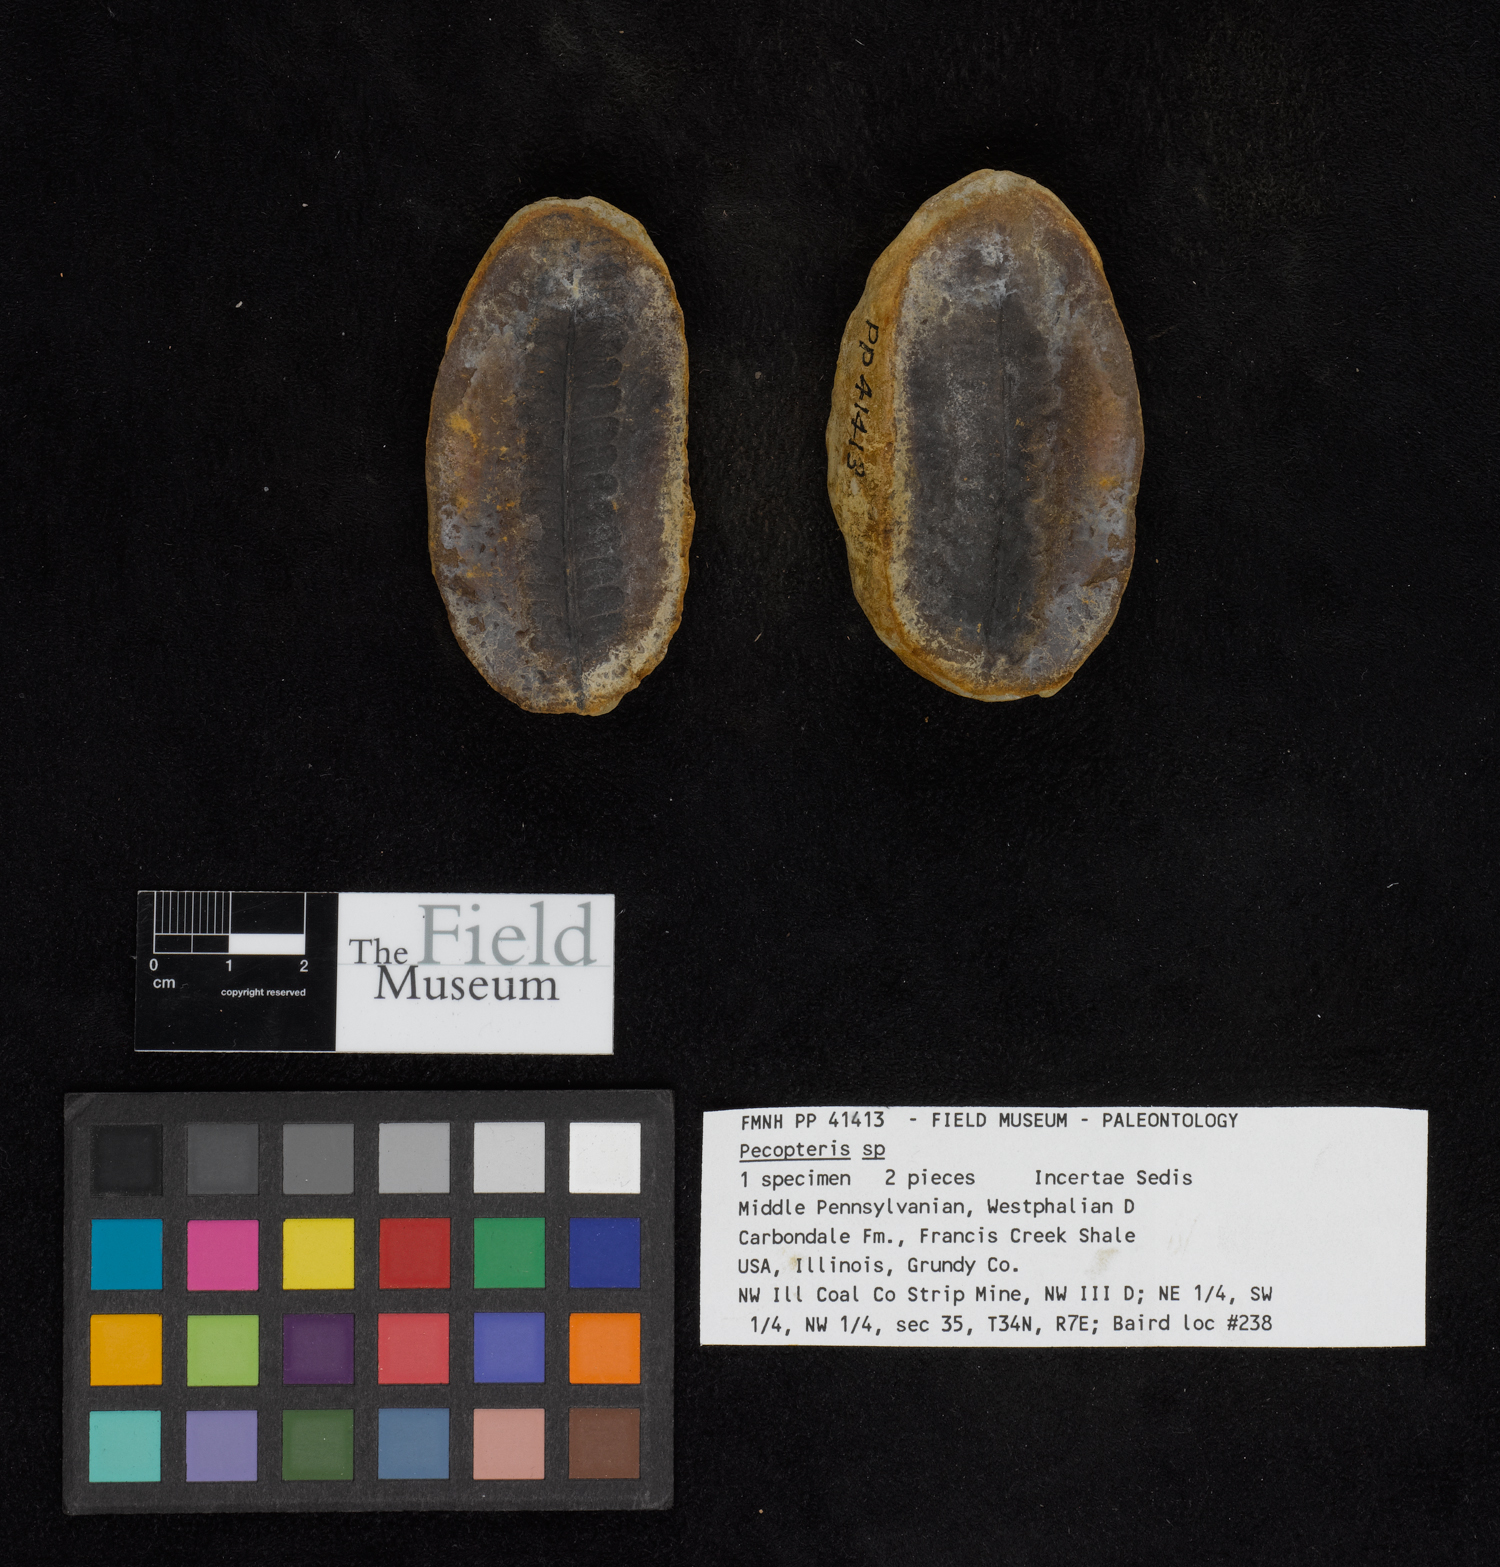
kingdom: Plantae
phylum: Tracheophyta
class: Polypodiopsida
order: Marattiales
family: Asterothecaceae
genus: Pecopteris
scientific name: Pecopteris
